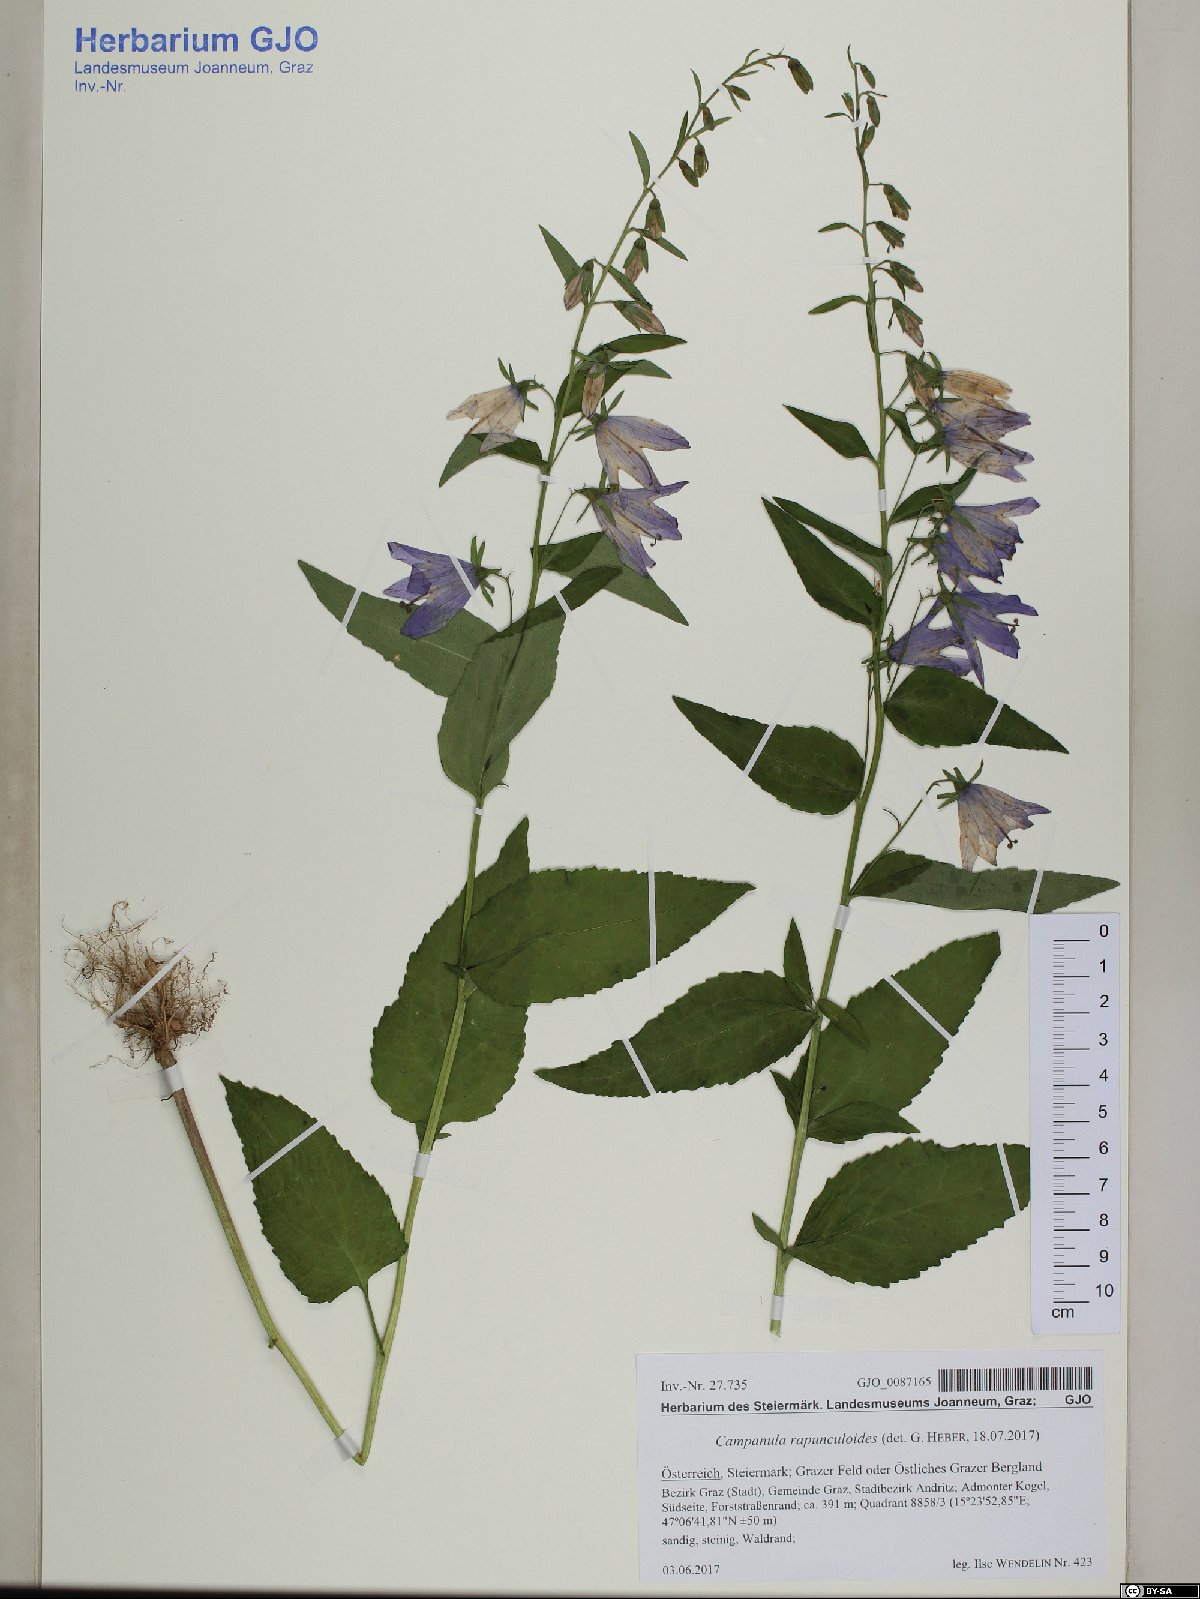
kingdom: Plantae
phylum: Tracheophyta
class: Magnoliopsida
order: Asterales
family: Campanulaceae
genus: Campanula
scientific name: Campanula rapunculoides
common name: Creeping bellflower
